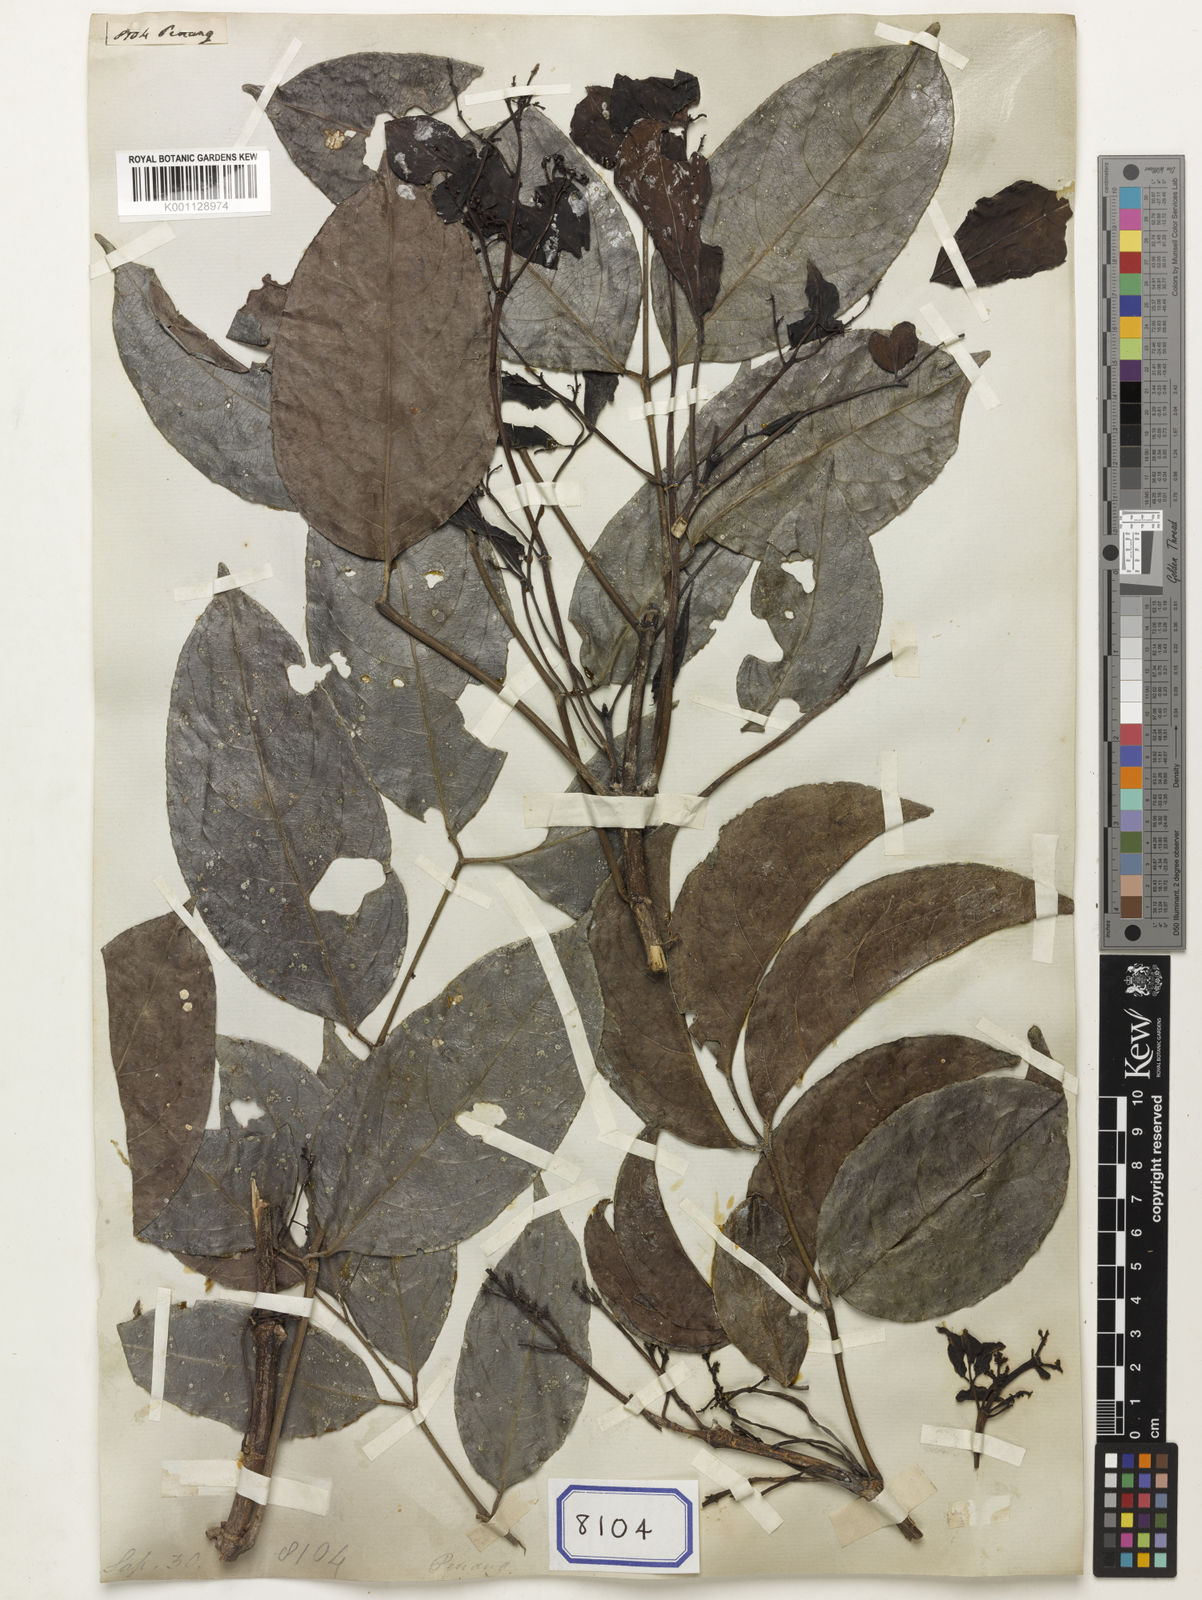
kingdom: Plantae
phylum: Tracheophyta
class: Magnoliopsida
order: Sapindales
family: Sapindaceae
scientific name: Sapindaceae
